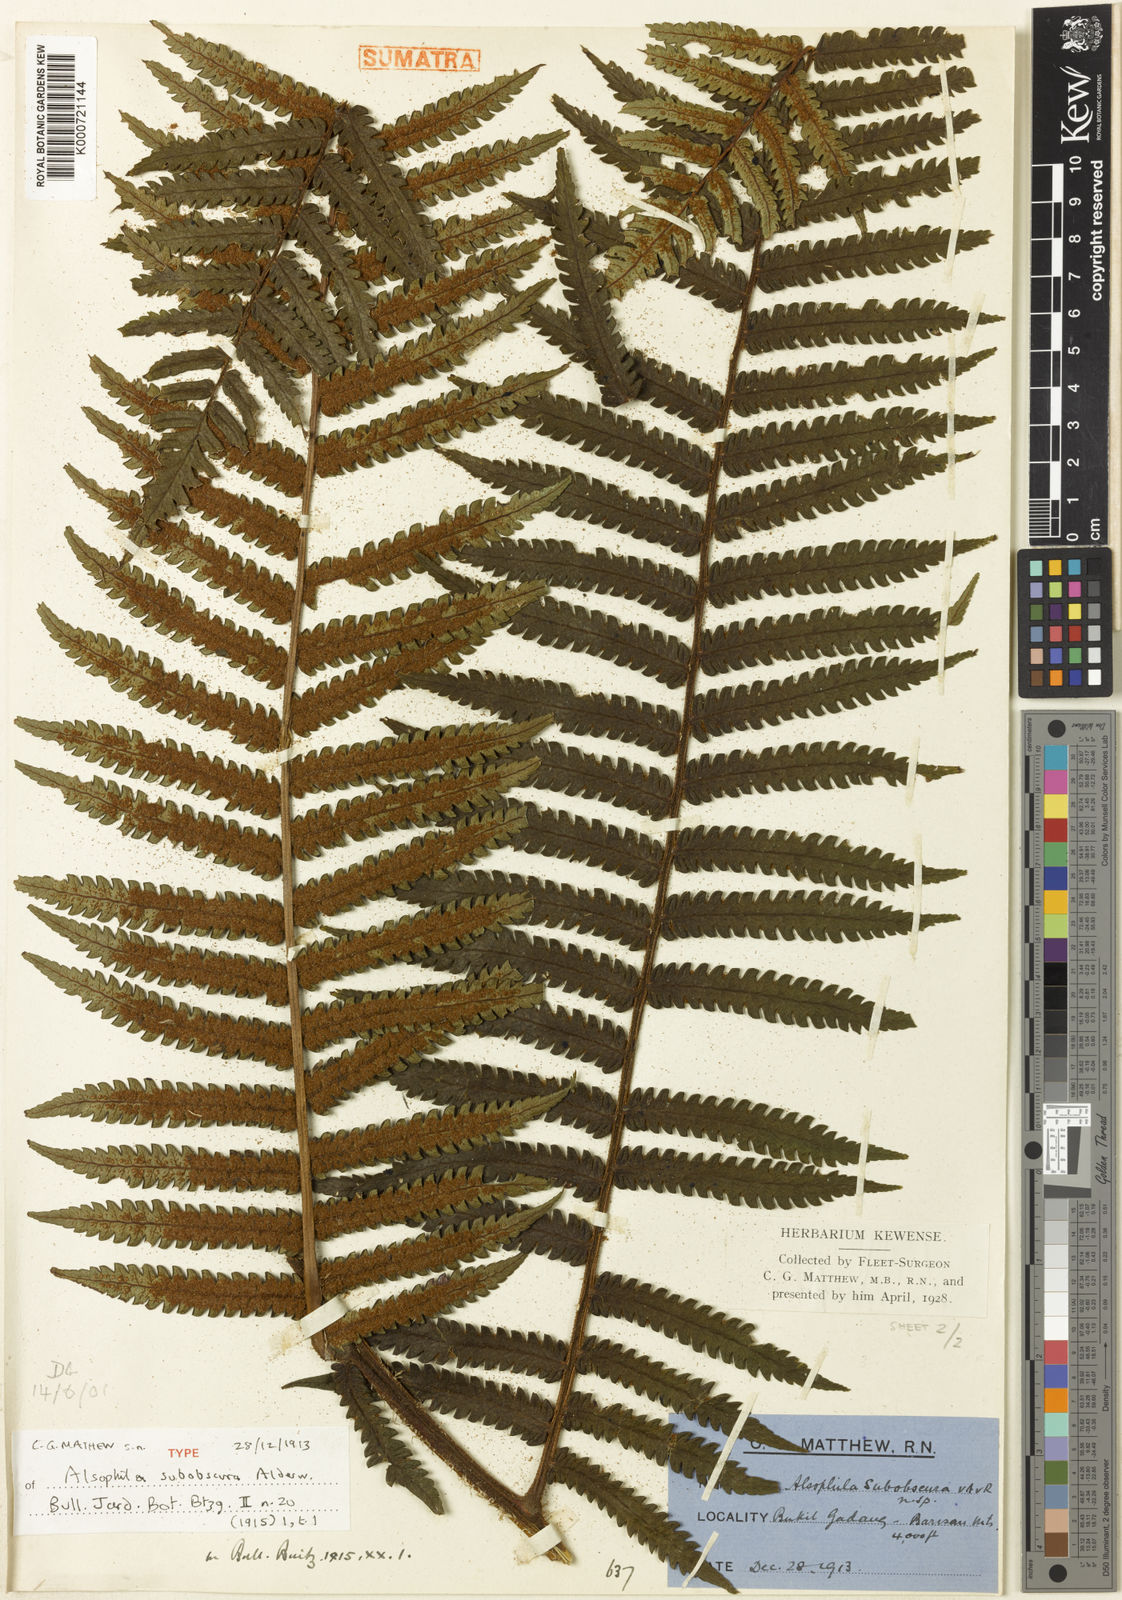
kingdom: Plantae
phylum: Tracheophyta
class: Polypodiopsida
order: Cyatheales
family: Cyatheaceae
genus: Sphaeropteris
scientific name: Sphaeropteris obscura
